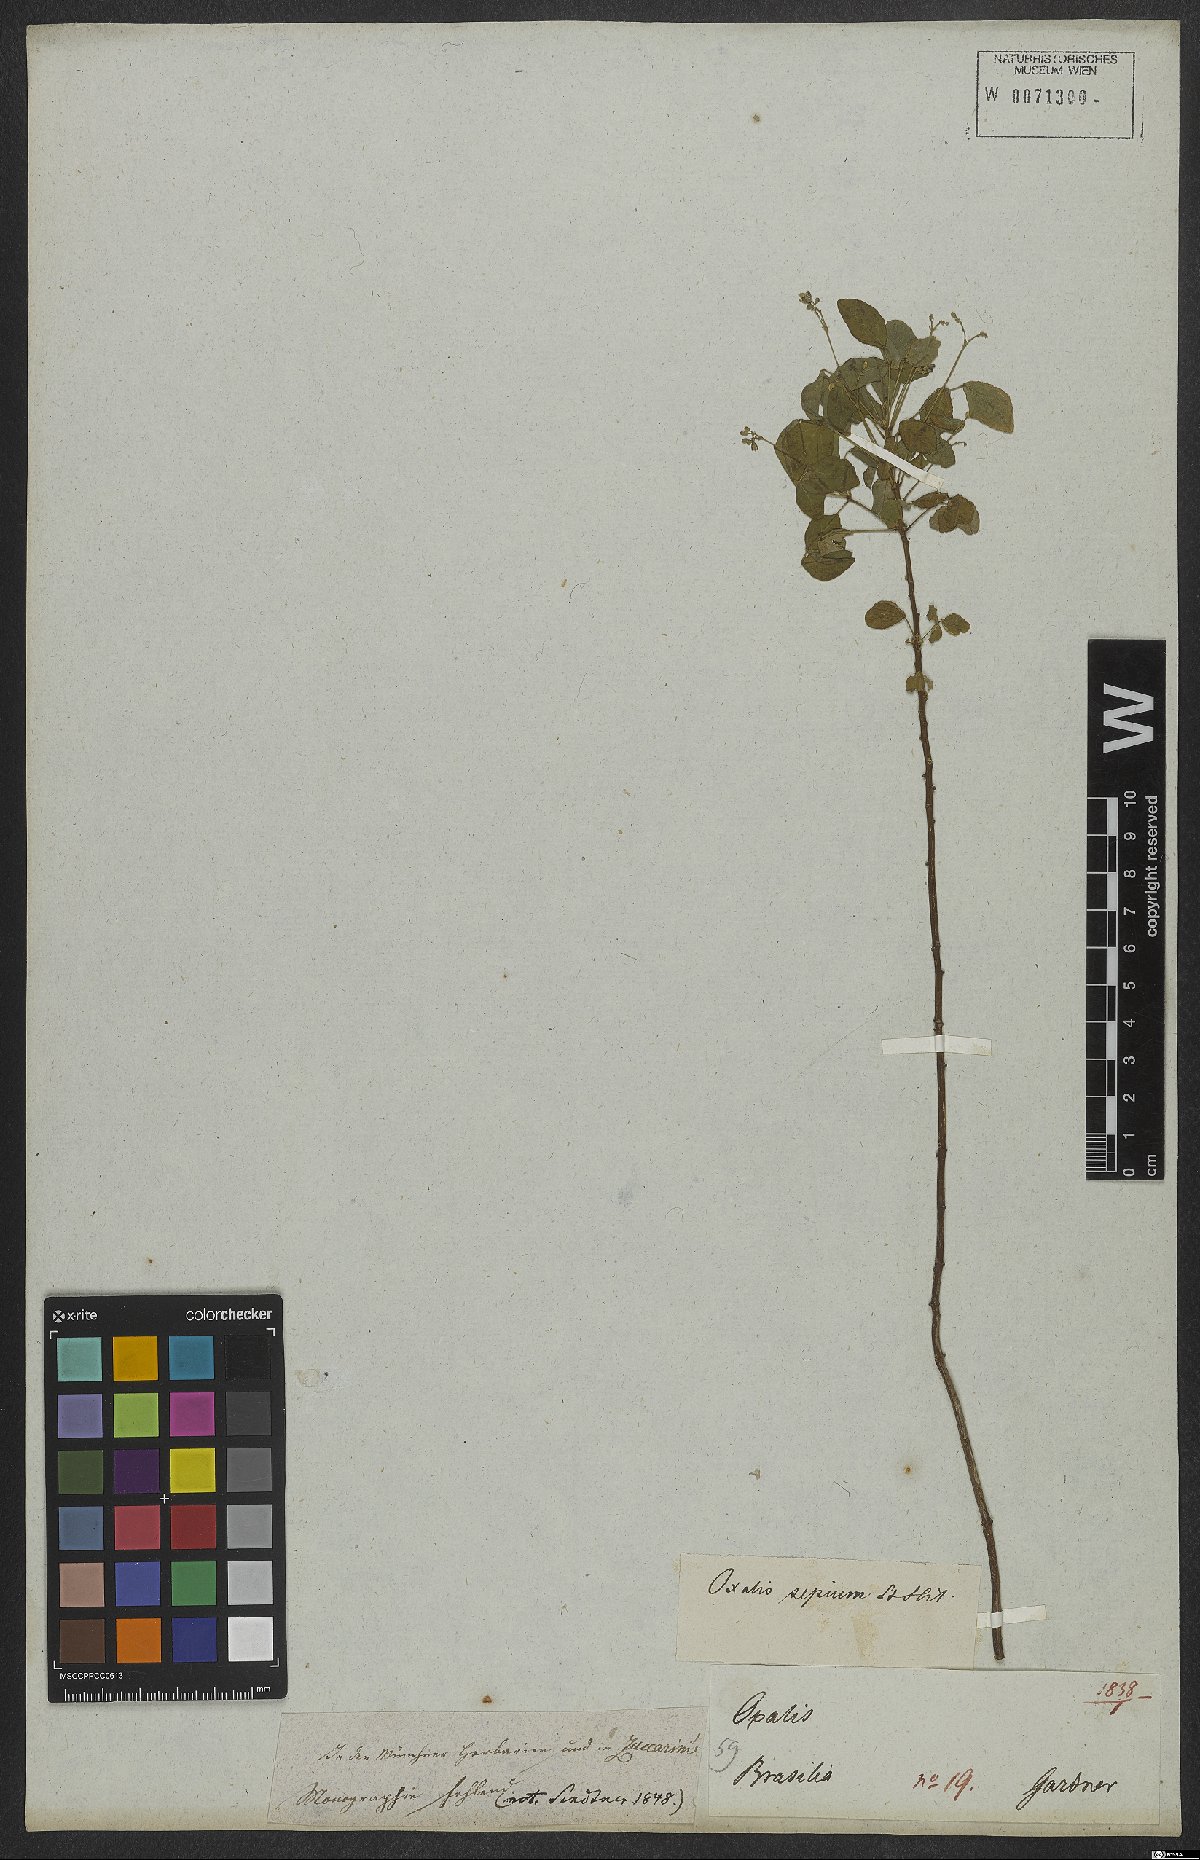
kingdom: Plantae
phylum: Tracheophyta
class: Magnoliopsida
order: Oxalidales
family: Oxalidaceae
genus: Oxalis
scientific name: Oxalis sepium
